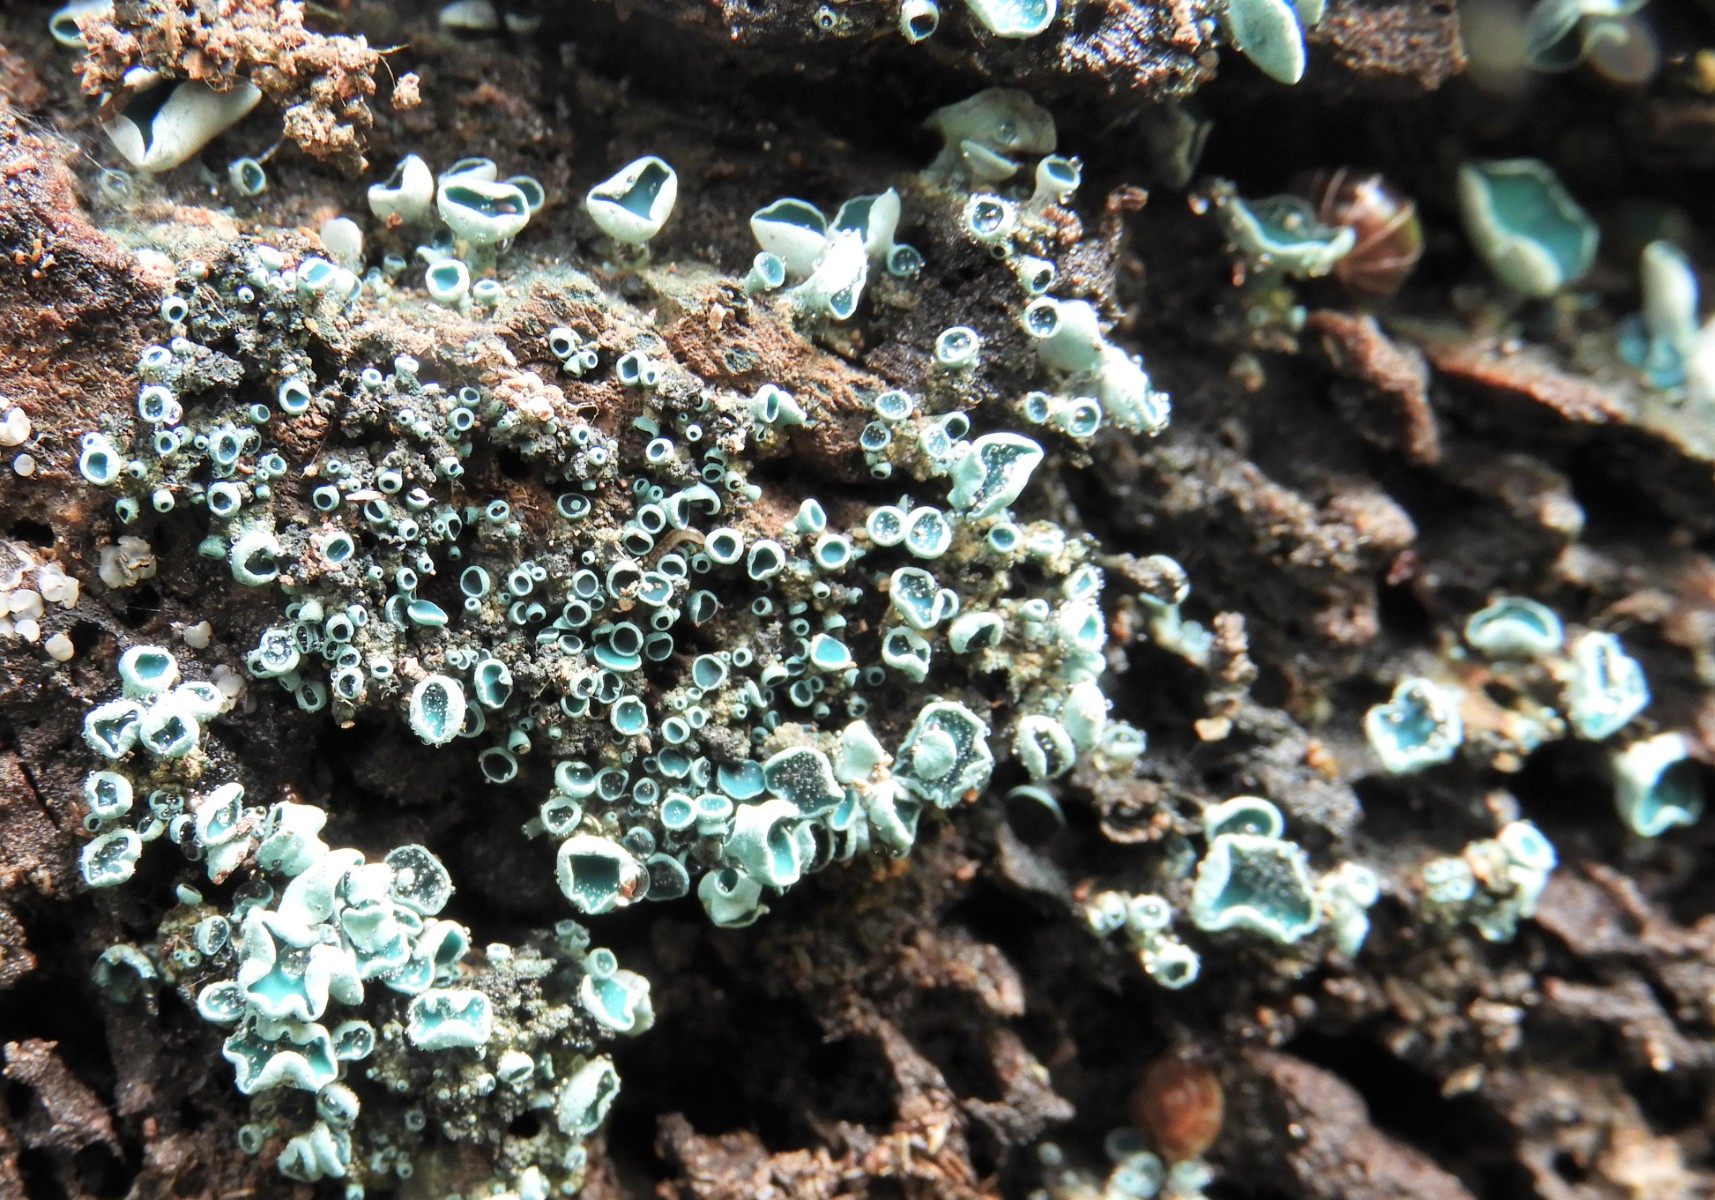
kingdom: Fungi
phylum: Ascomycota
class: Leotiomycetes
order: Helotiales
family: Chlorociboriaceae
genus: Chlorociboria
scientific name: Chlorociboria aeruginascens
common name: almindelig grønskive
